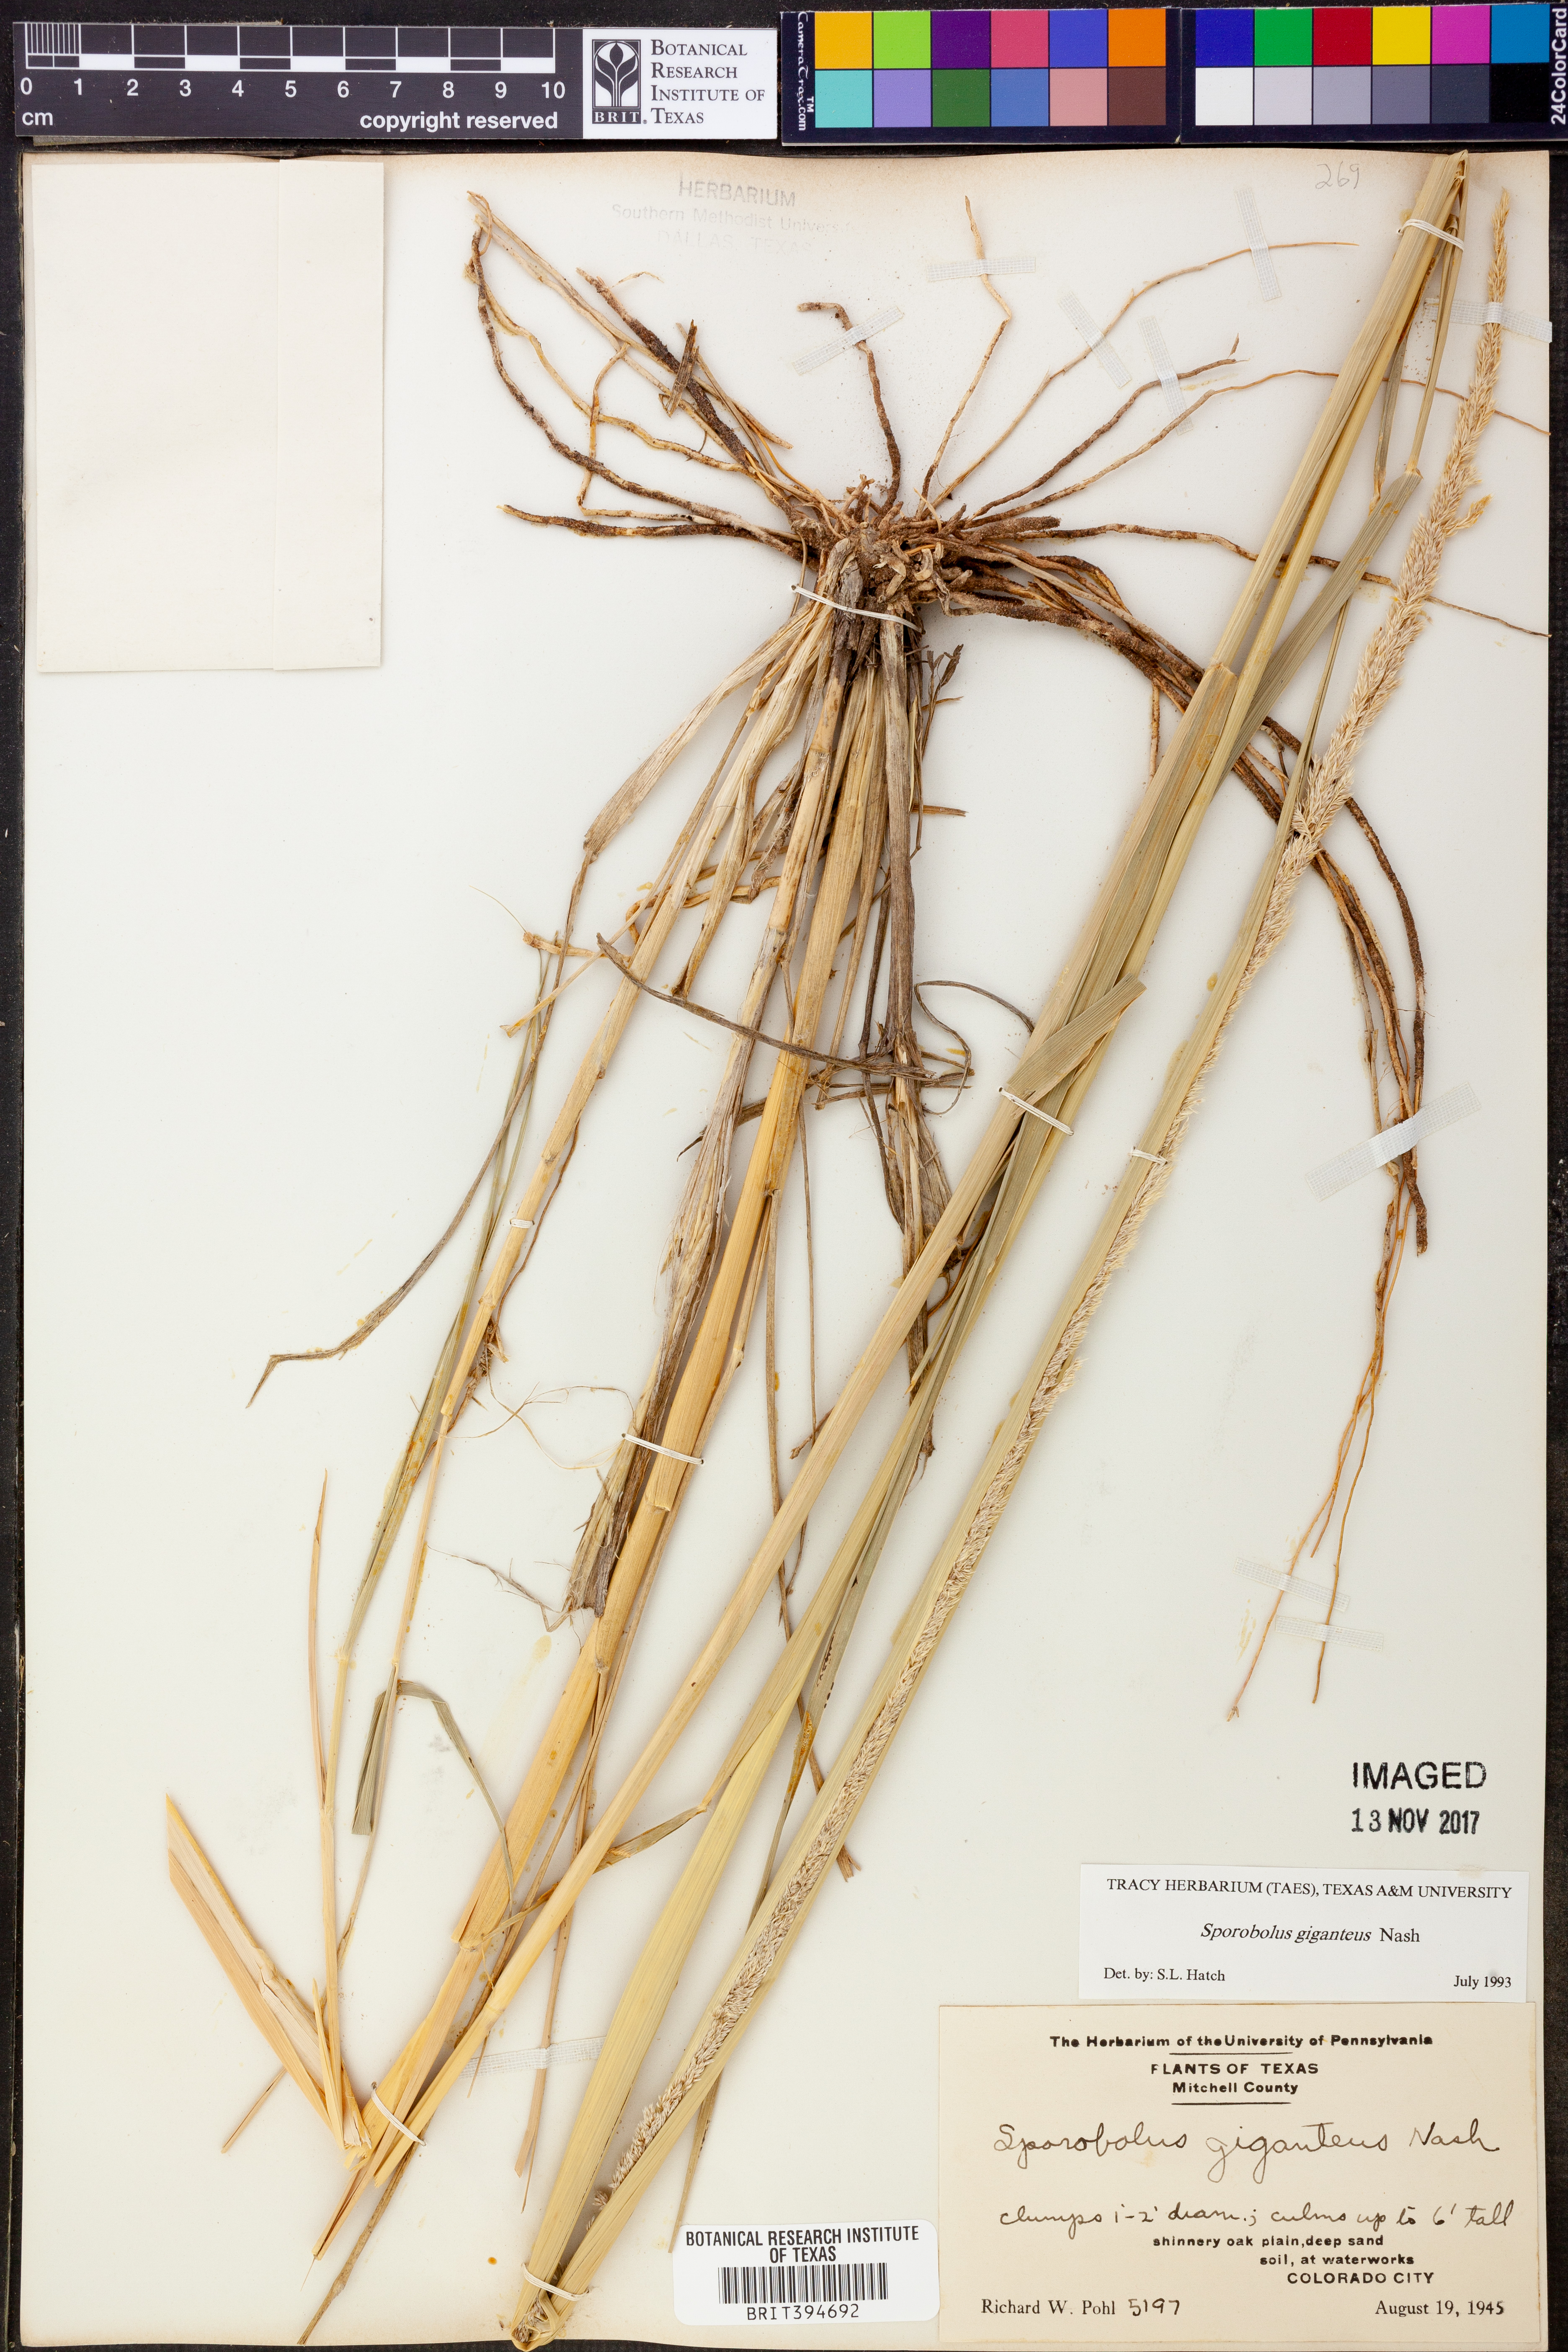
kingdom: Plantae
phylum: Tracheophyta
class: Liliopsida
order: Poales
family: Poaceae
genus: Sporobolus
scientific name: Sporobolus giganteus
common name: Giant dropseed
